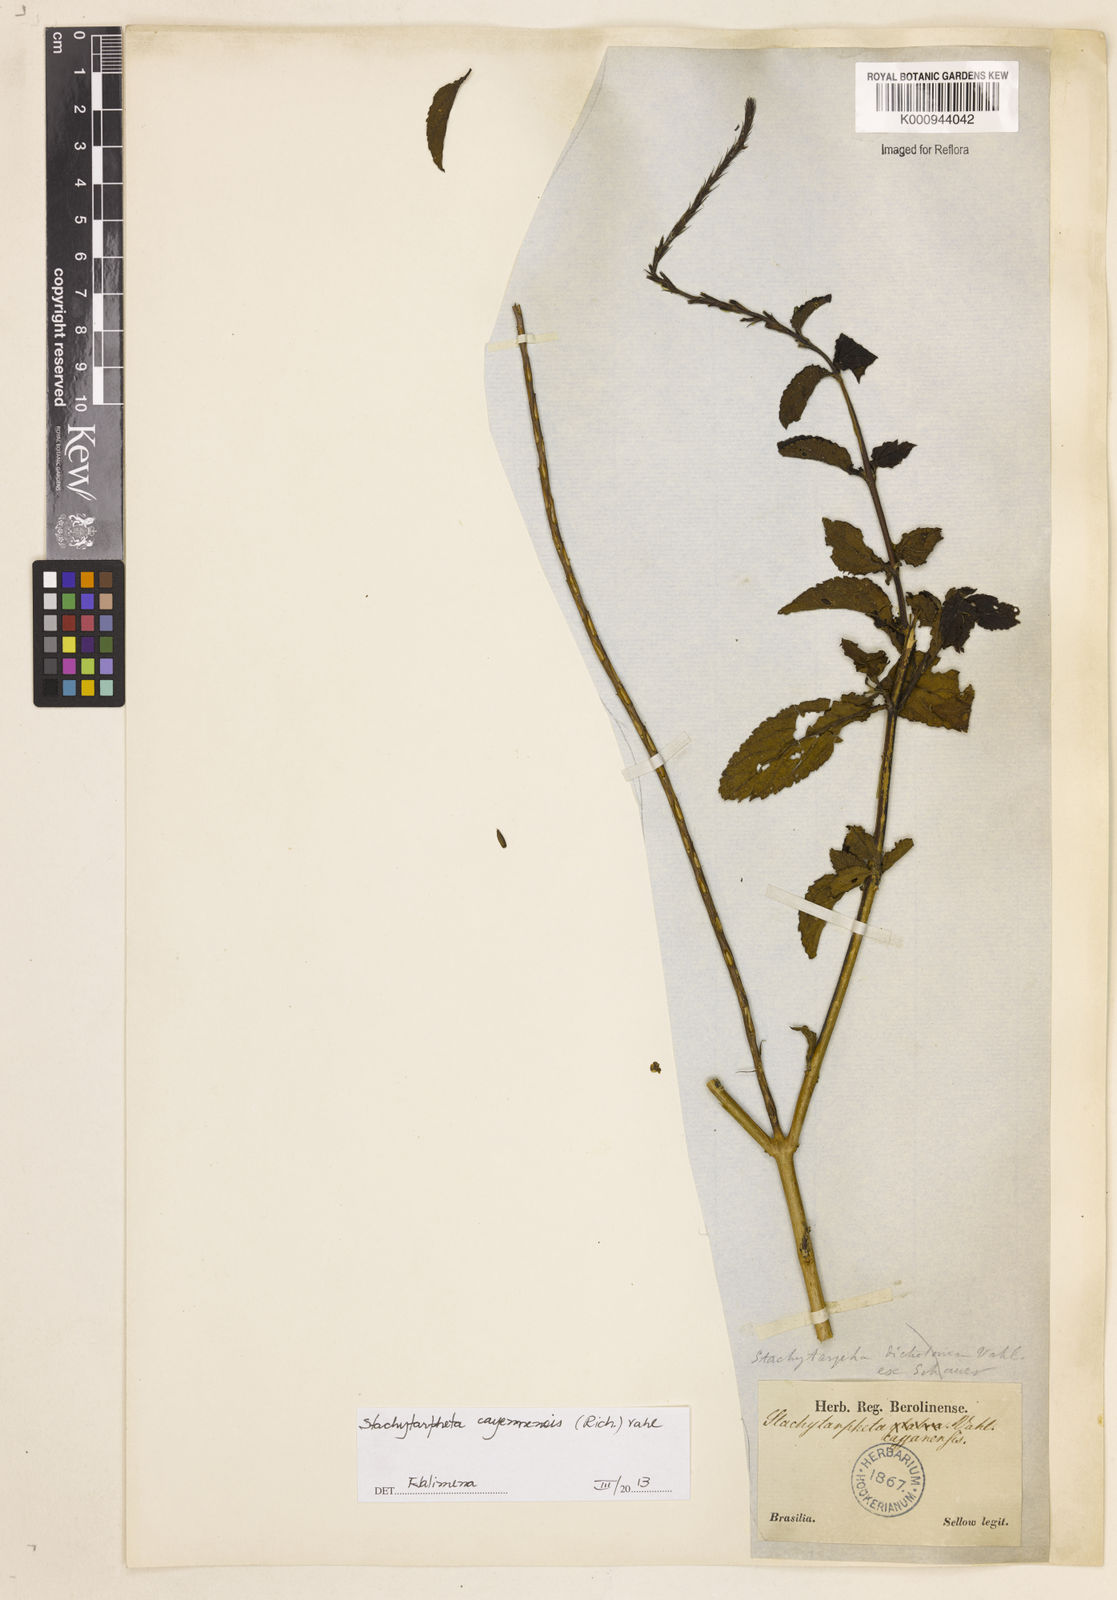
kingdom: Plantae
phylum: Tracheophyta
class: Magnoliopsida
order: Lamiales
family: Verbenaceae
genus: Aloysia
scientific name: Aloysia
